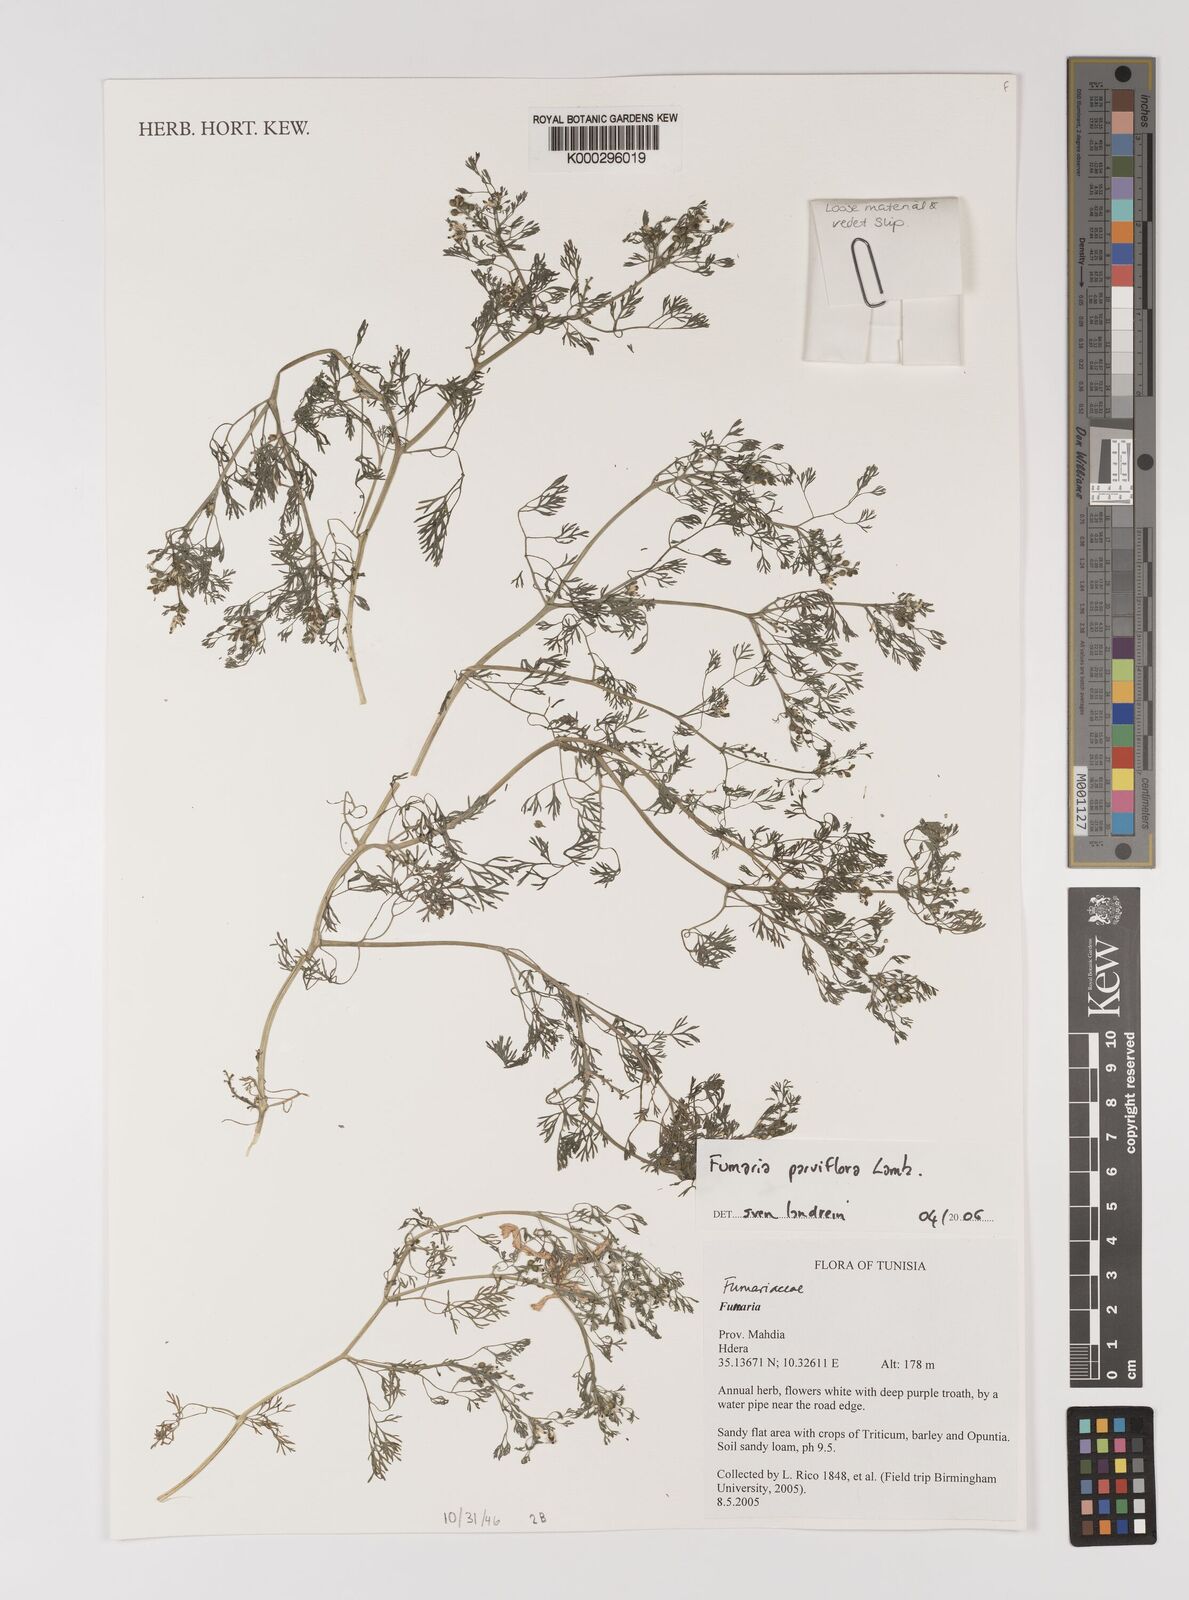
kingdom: Plantae
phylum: Tracheophyta
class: Magnoliopsida
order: Ranunculales
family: Papaveraceae
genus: Fumaria
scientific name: Fumaria parviflora
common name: Fine-leaved fumitory
